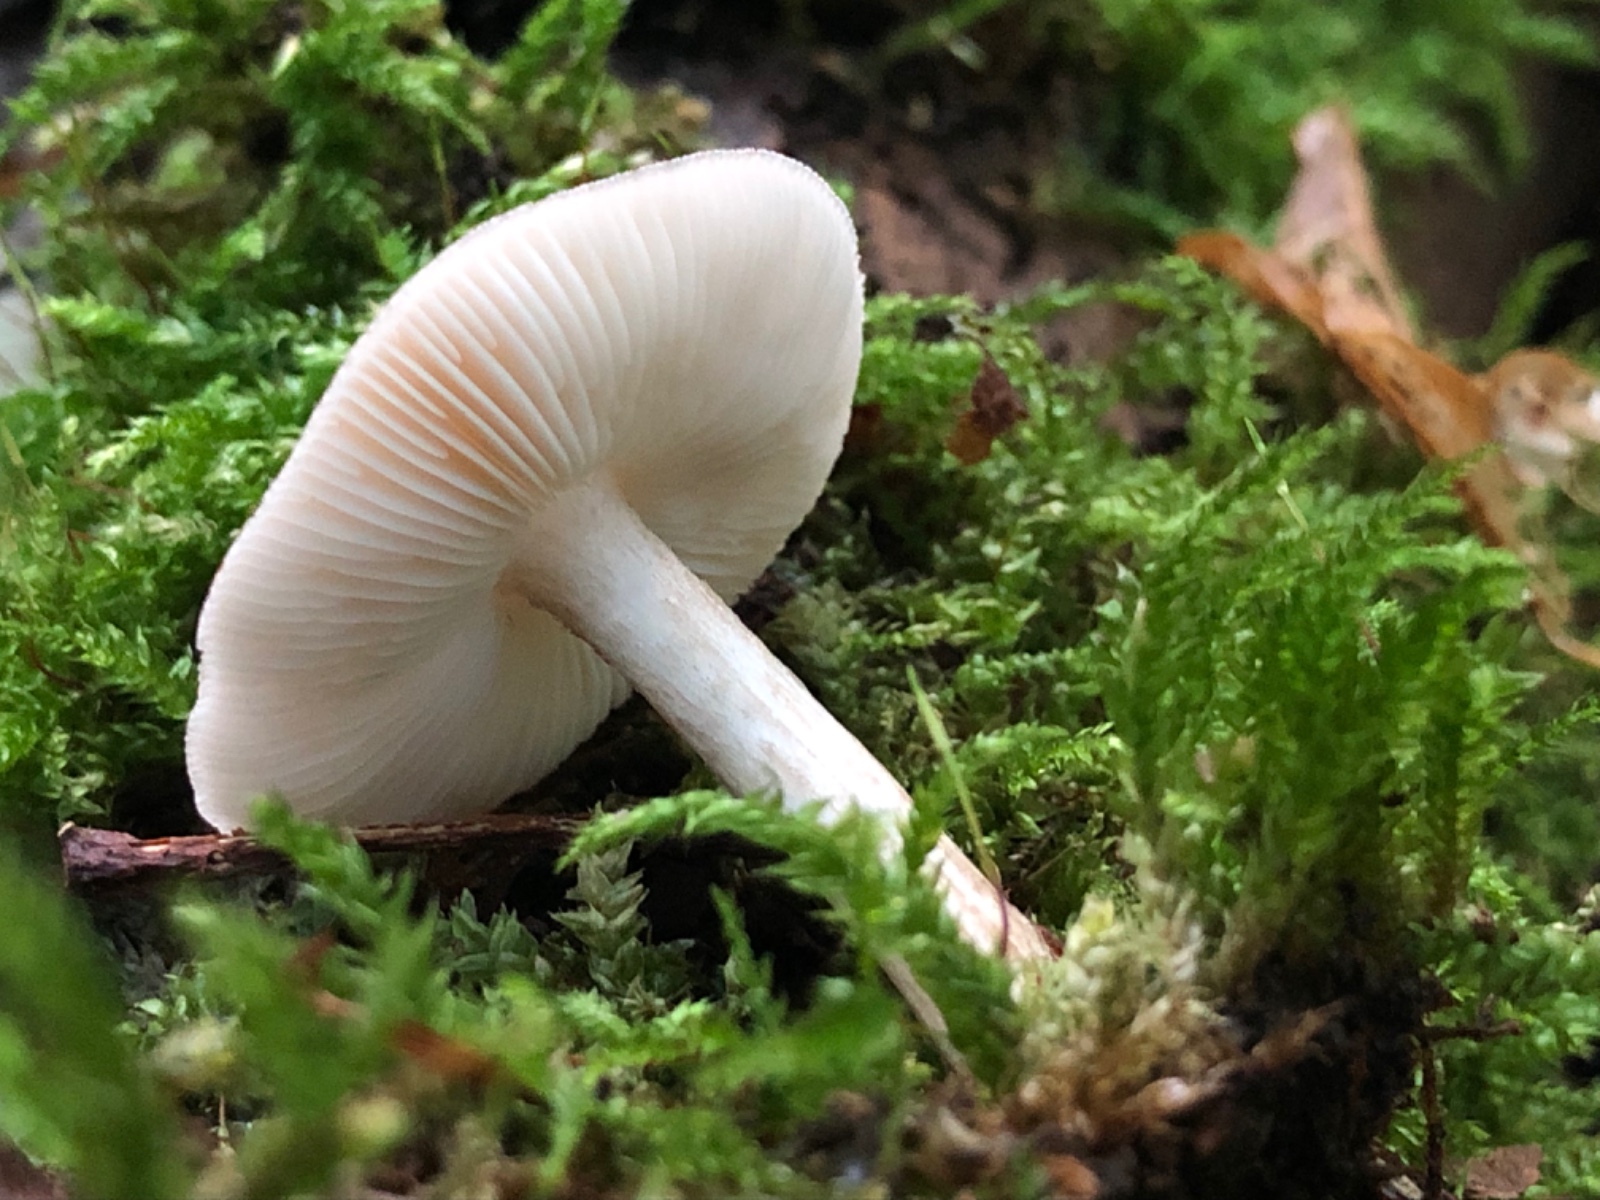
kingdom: Fungi
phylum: Basidiomycota
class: Agaricomycetes
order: Agaricales
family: Pluteaceae
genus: Pluteus
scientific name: Pluteus cervinus
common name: sodfarvet skærmhat
